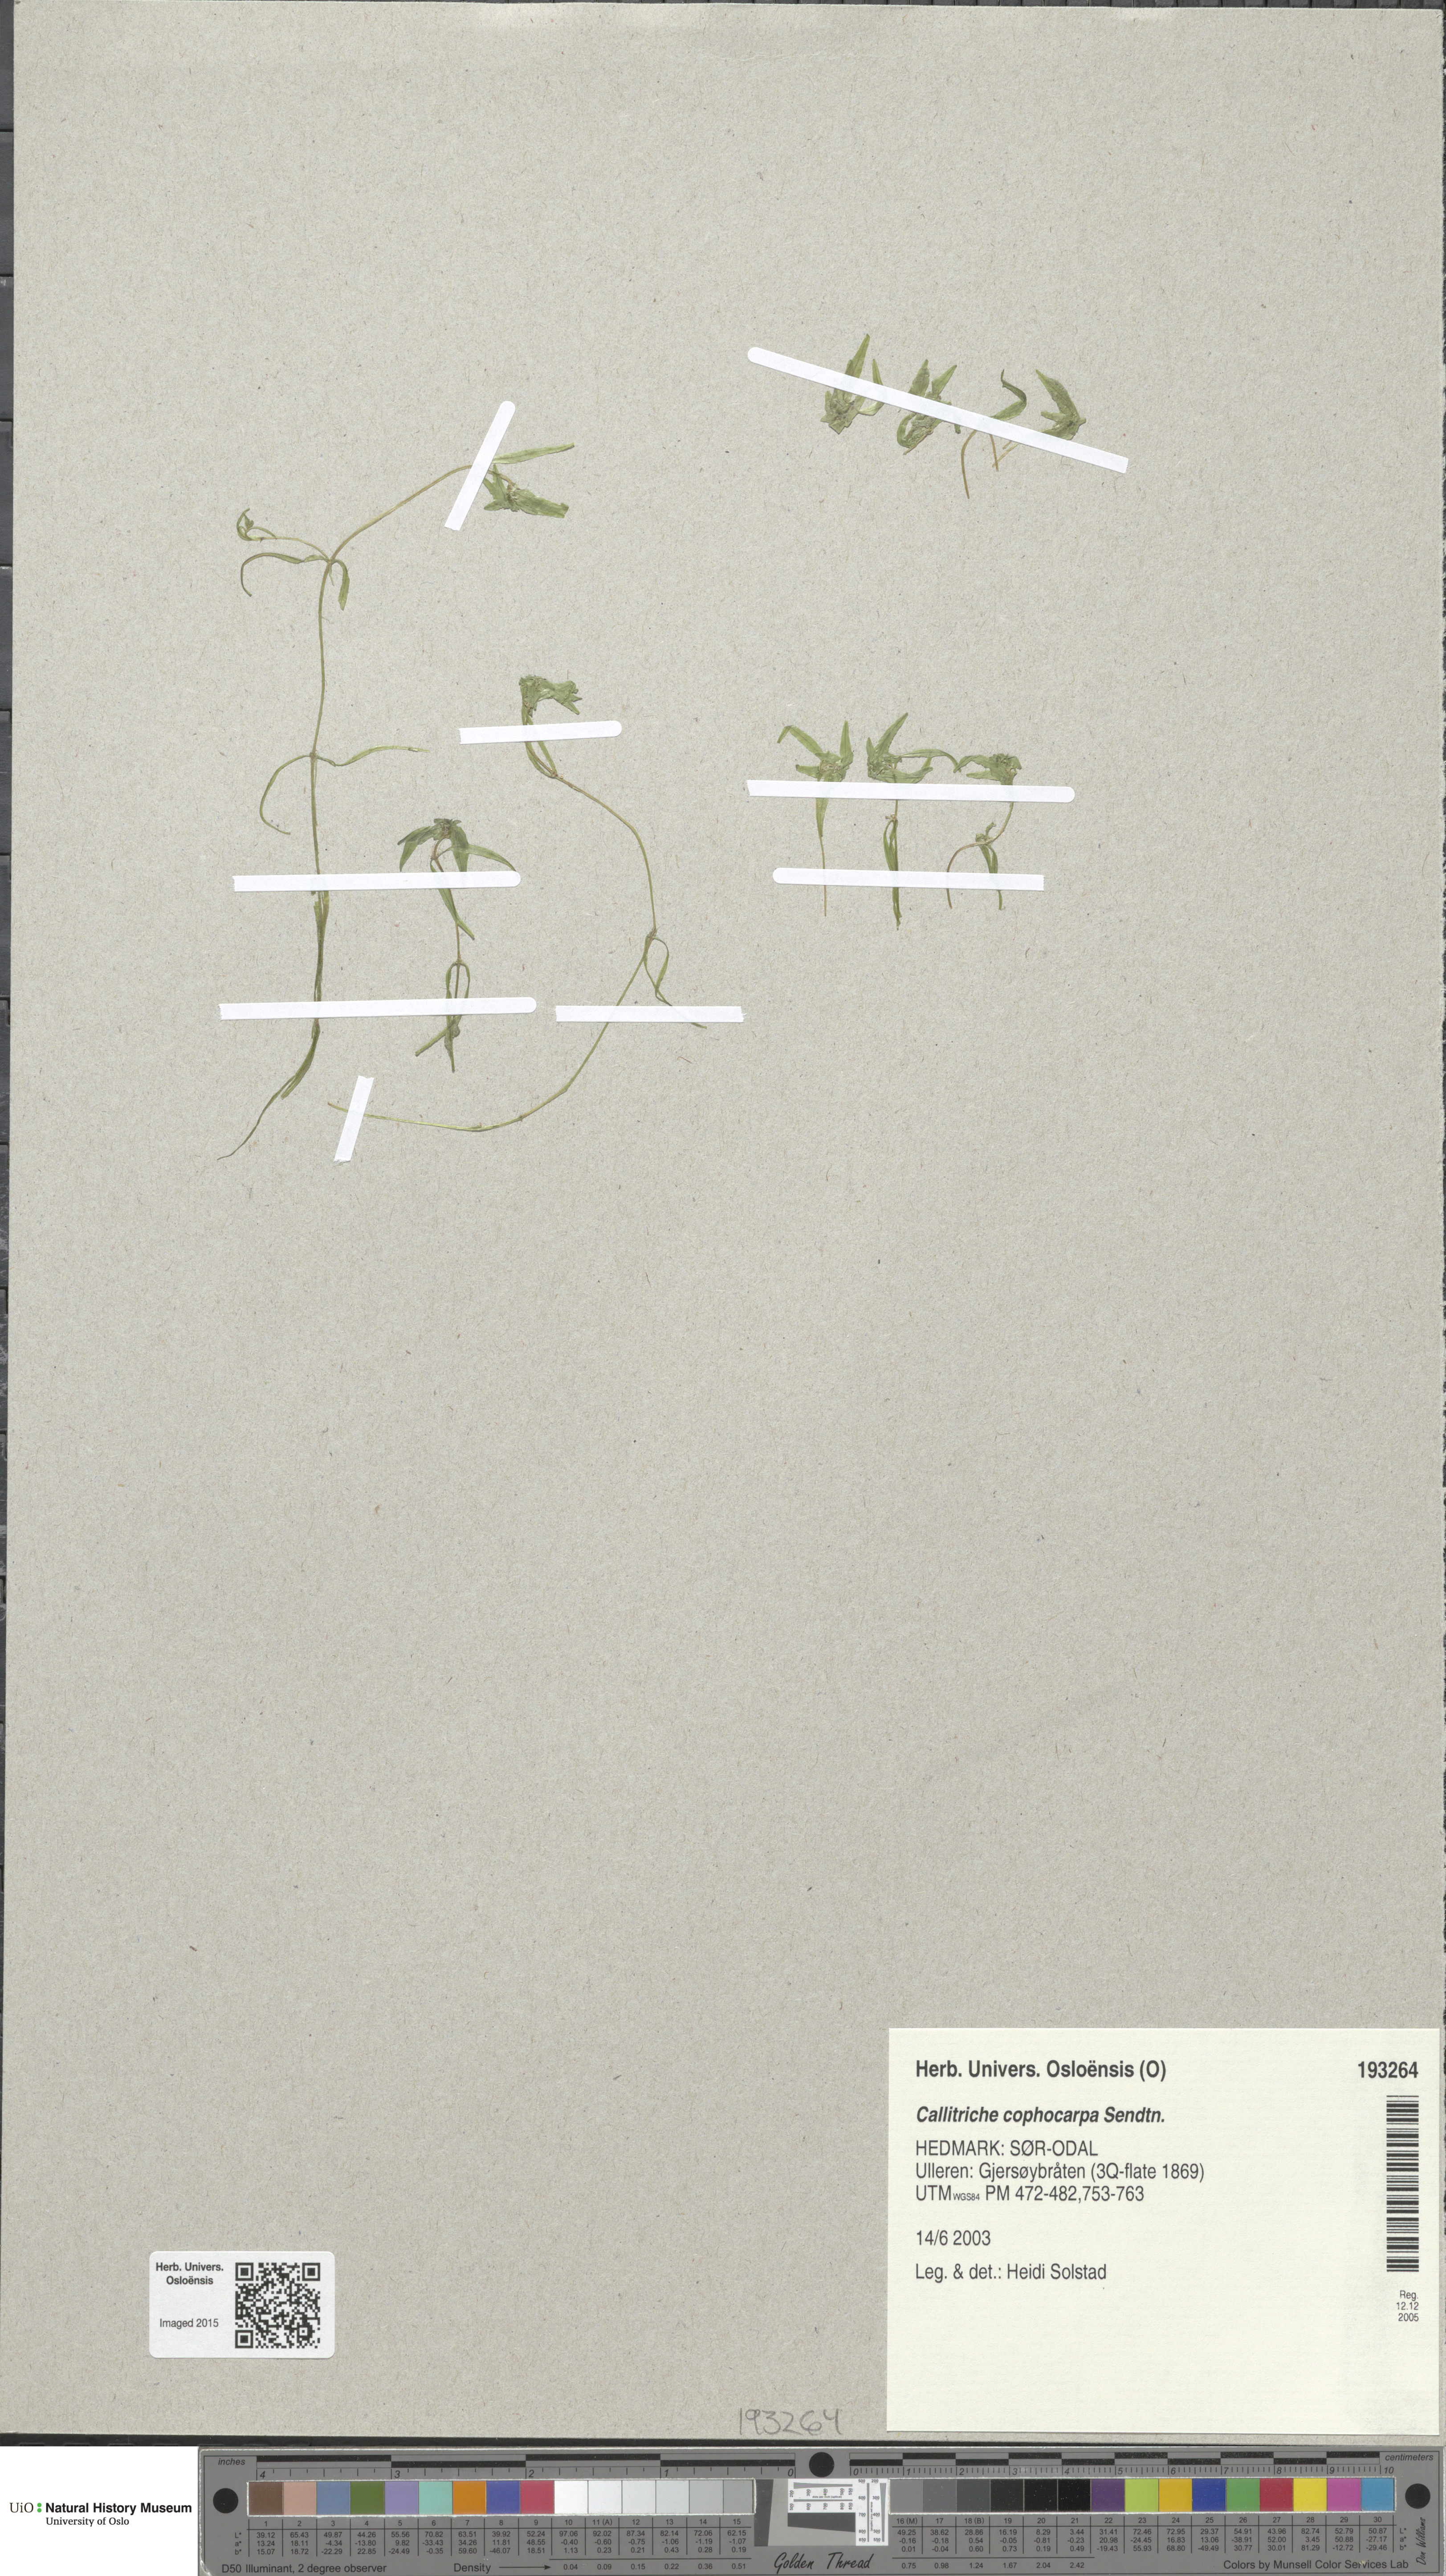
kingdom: Plantae
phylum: Tracheophyta
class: Magnoliopsida
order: Lamiales
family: Plantaginaceae
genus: Callitriche
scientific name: Callitriche cophocarpa
